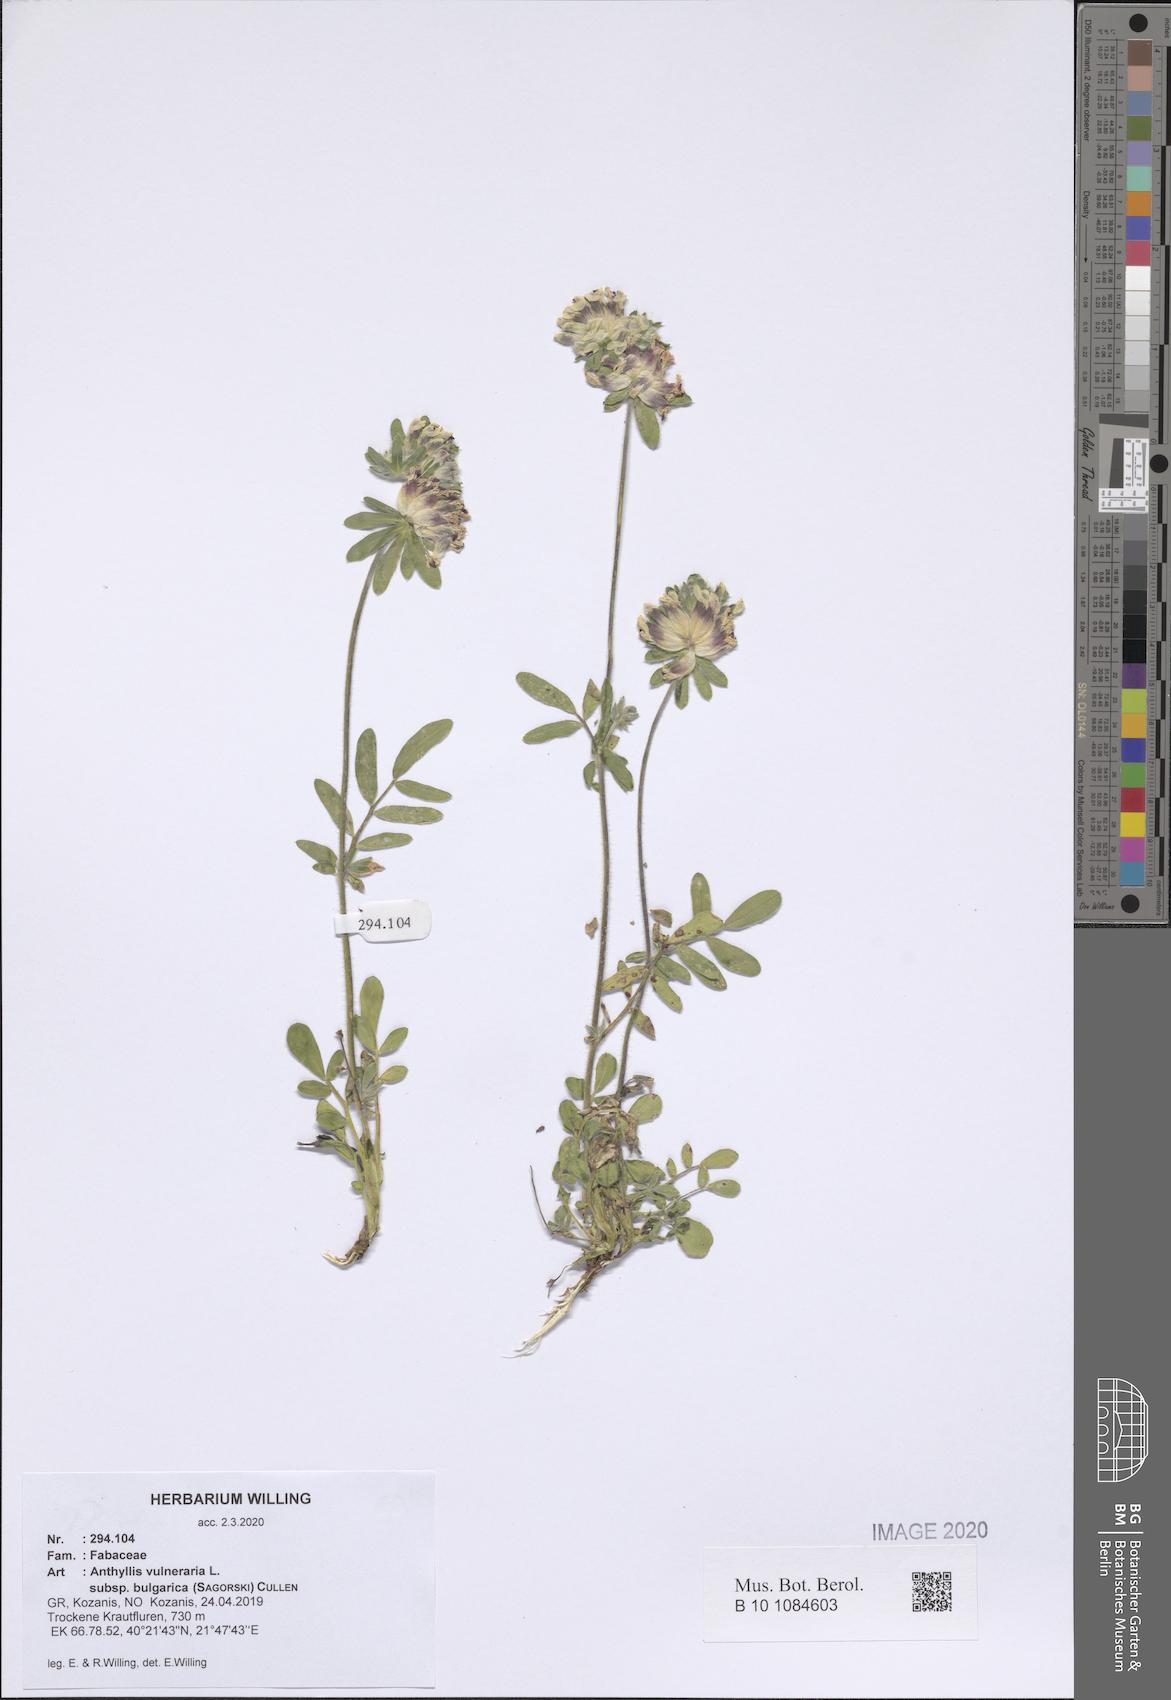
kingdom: Plantae
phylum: Tracheophyta
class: Magnoliopsida
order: Fabales
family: Fabaceae
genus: Anthyllis
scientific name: Anthyllis vulneraria
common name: Kidney vetch
